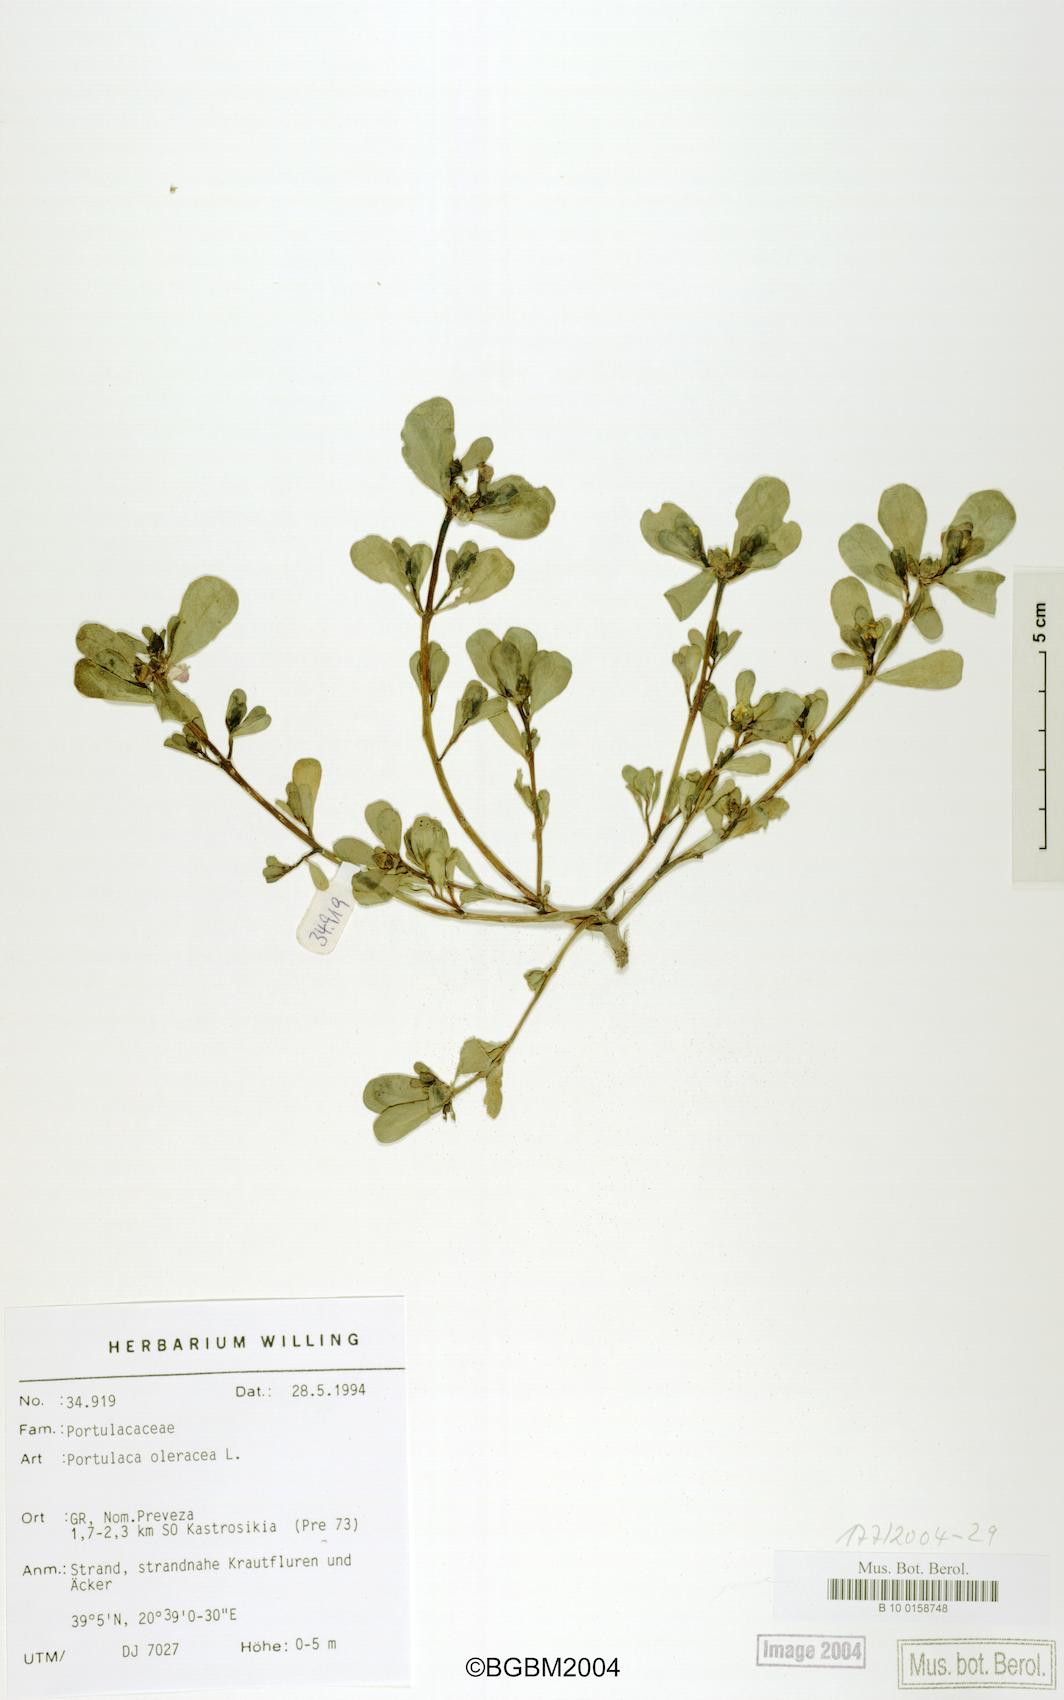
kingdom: Plantae
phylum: Tracheophyta
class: Magnoliopsida
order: Caryophyllales
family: Portulacaceae
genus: Portulaca
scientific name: Portulaca oleracea
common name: Common purslane
